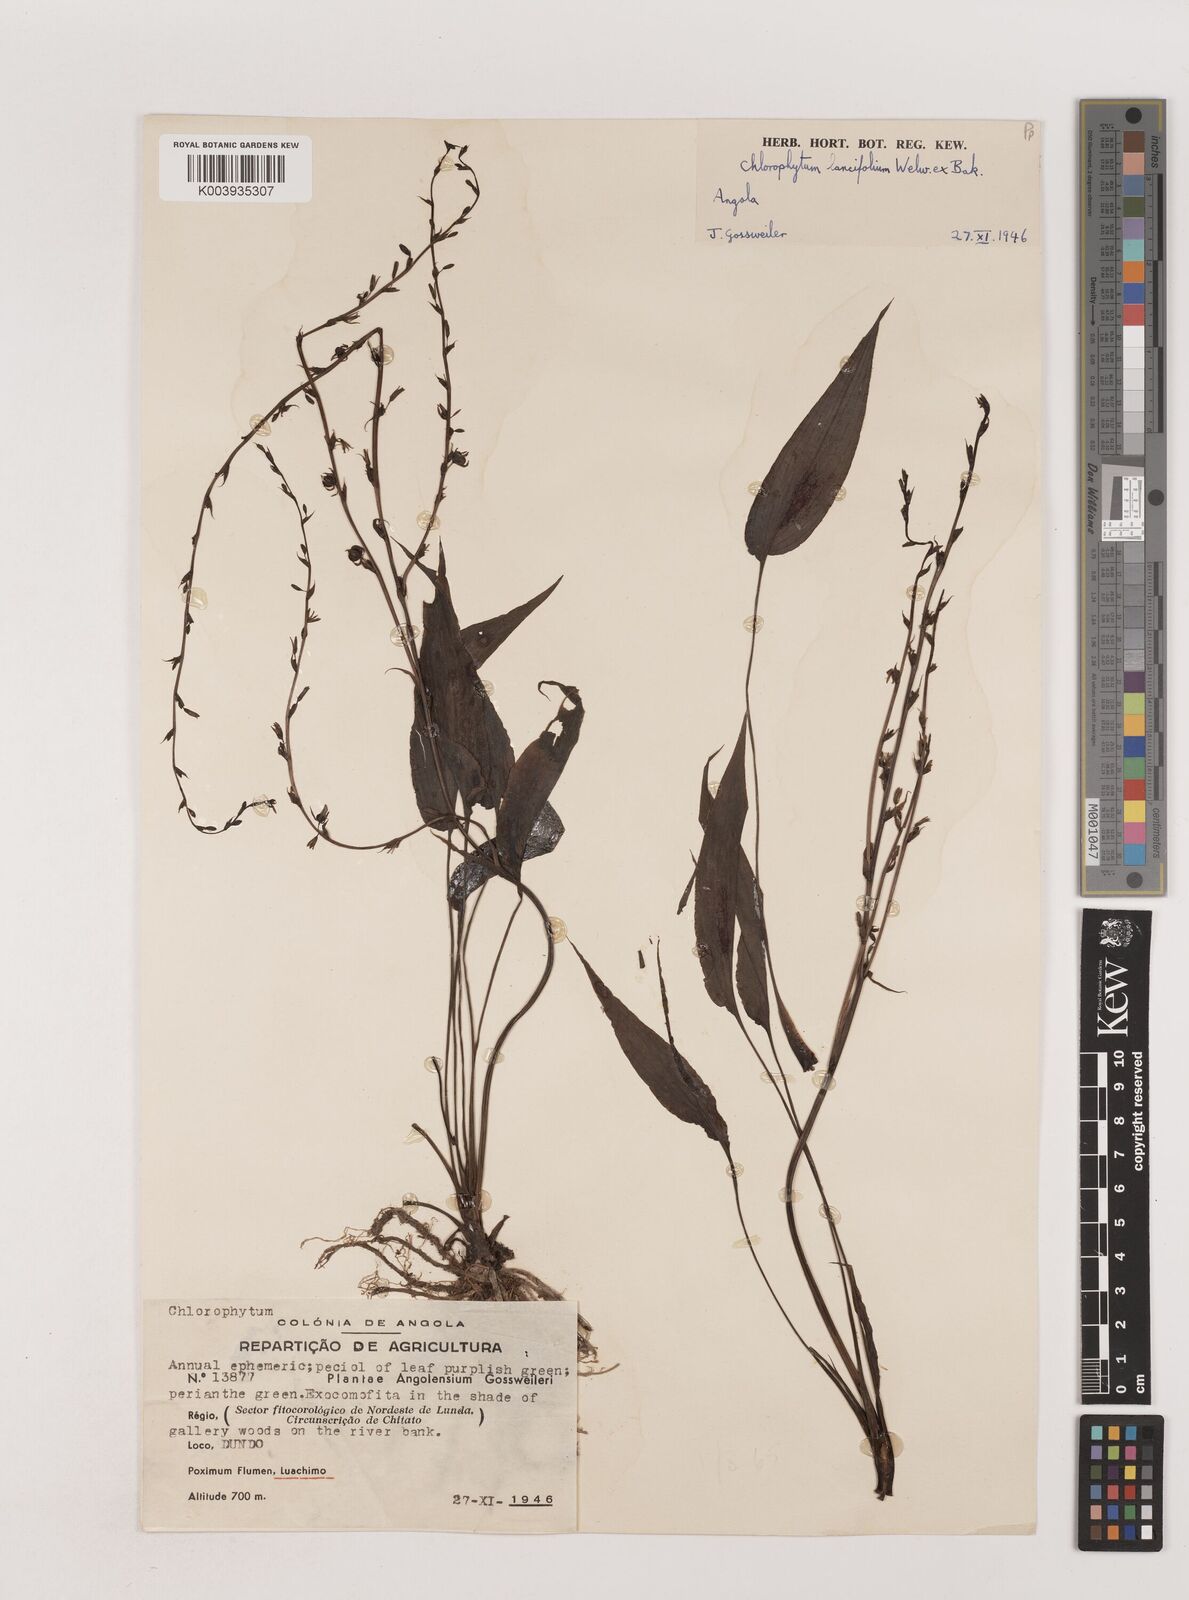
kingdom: Plantae
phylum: Tracheophyta
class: Liliopsida
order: Asparagales
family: Asparagaceae
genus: Chlorophytum
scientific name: Chlorophytum lancifolium
